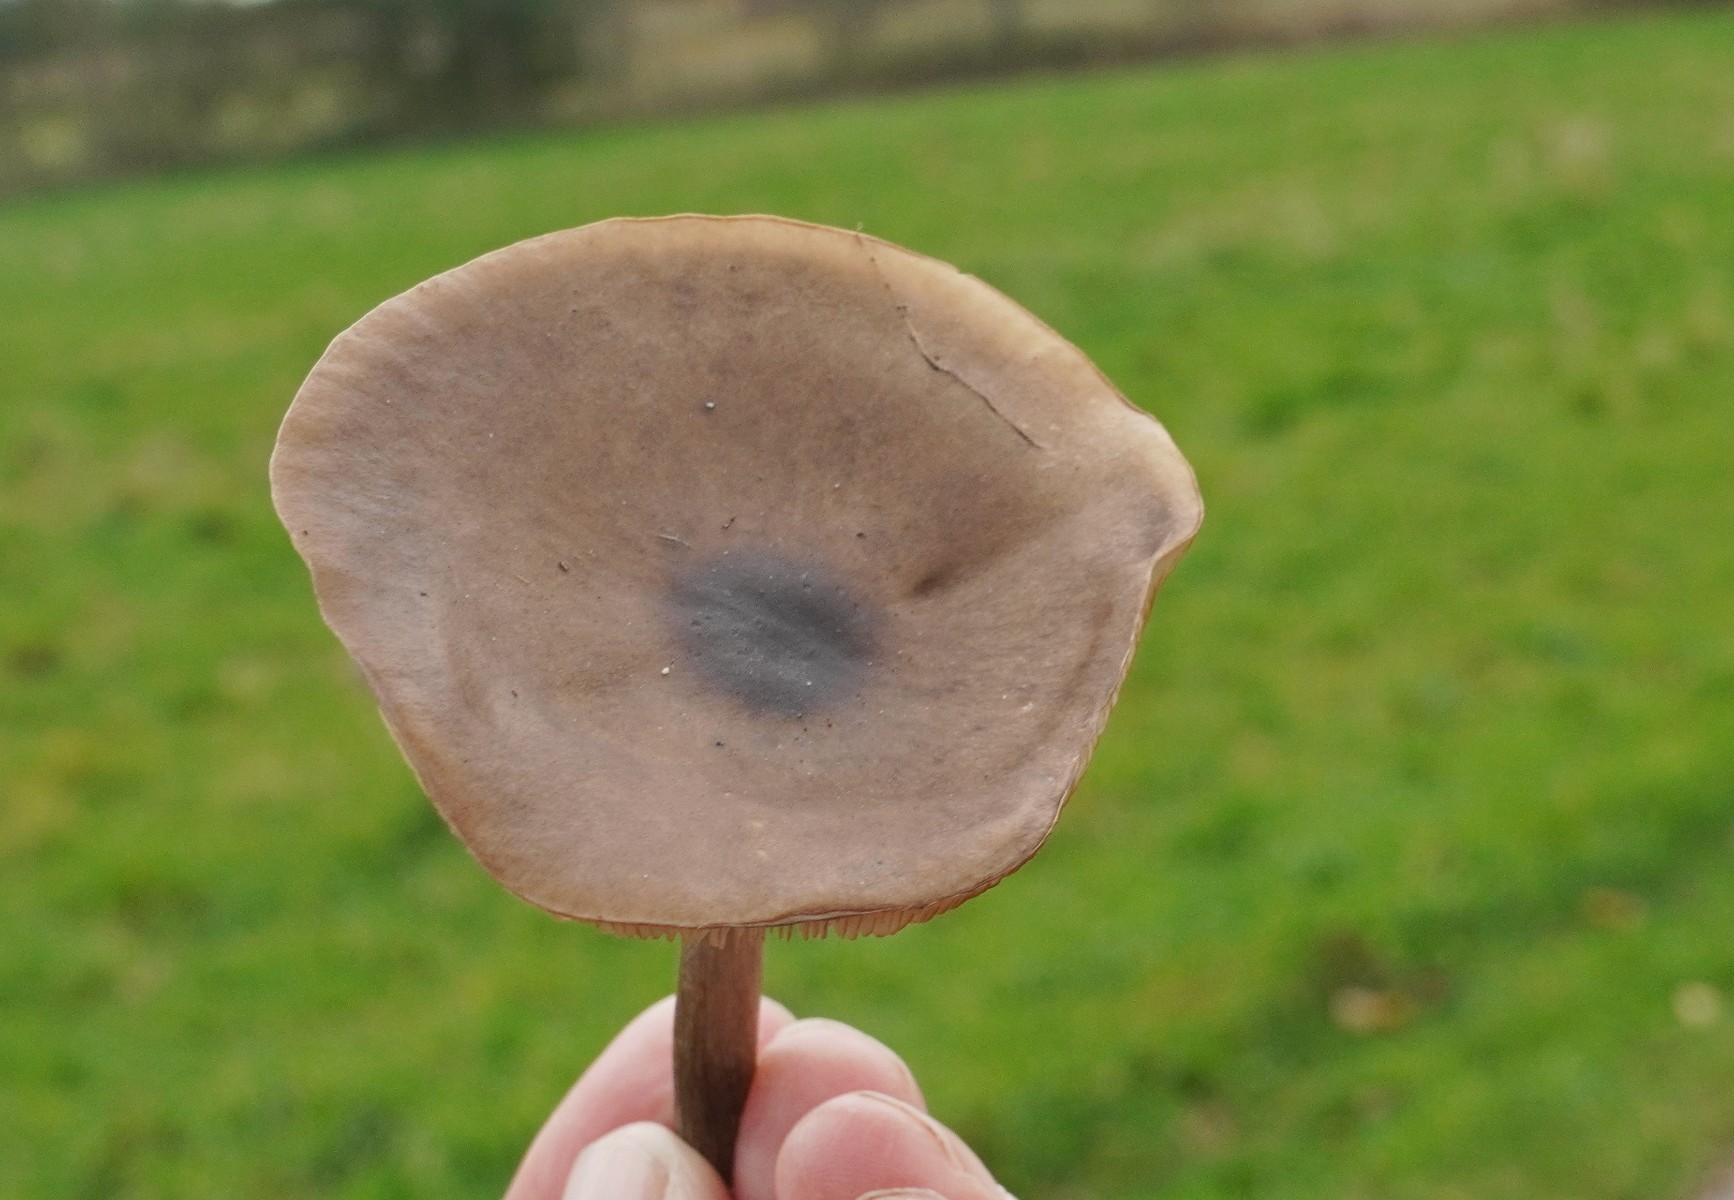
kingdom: Fungi
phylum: Basidiomycota
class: Agaricomycetes
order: Agaricales
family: Tricholomataceae
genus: Melanoleuca
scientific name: Melanoleuca
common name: munkehat
